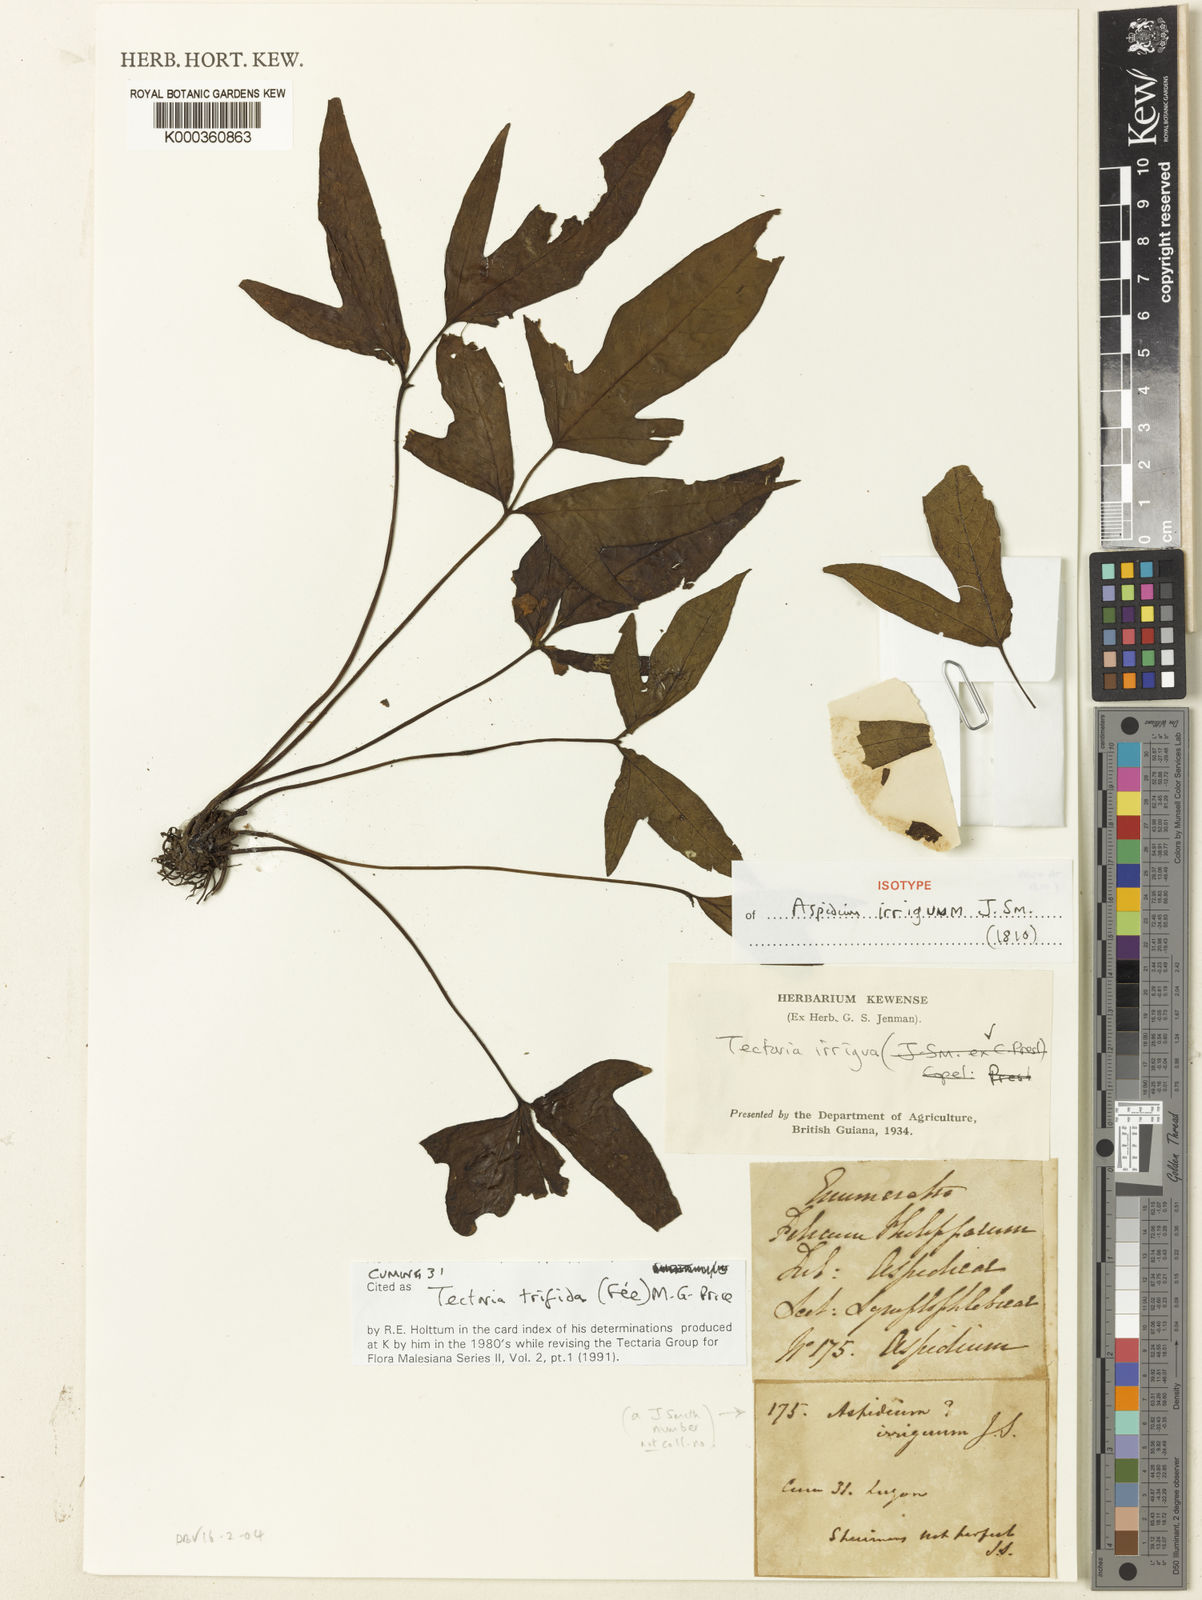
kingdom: Plantae
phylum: Tracheophyta
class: Polypodiopsida
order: Polypodiales
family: Tectariaceae
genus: Tectaria
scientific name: Tectaria
